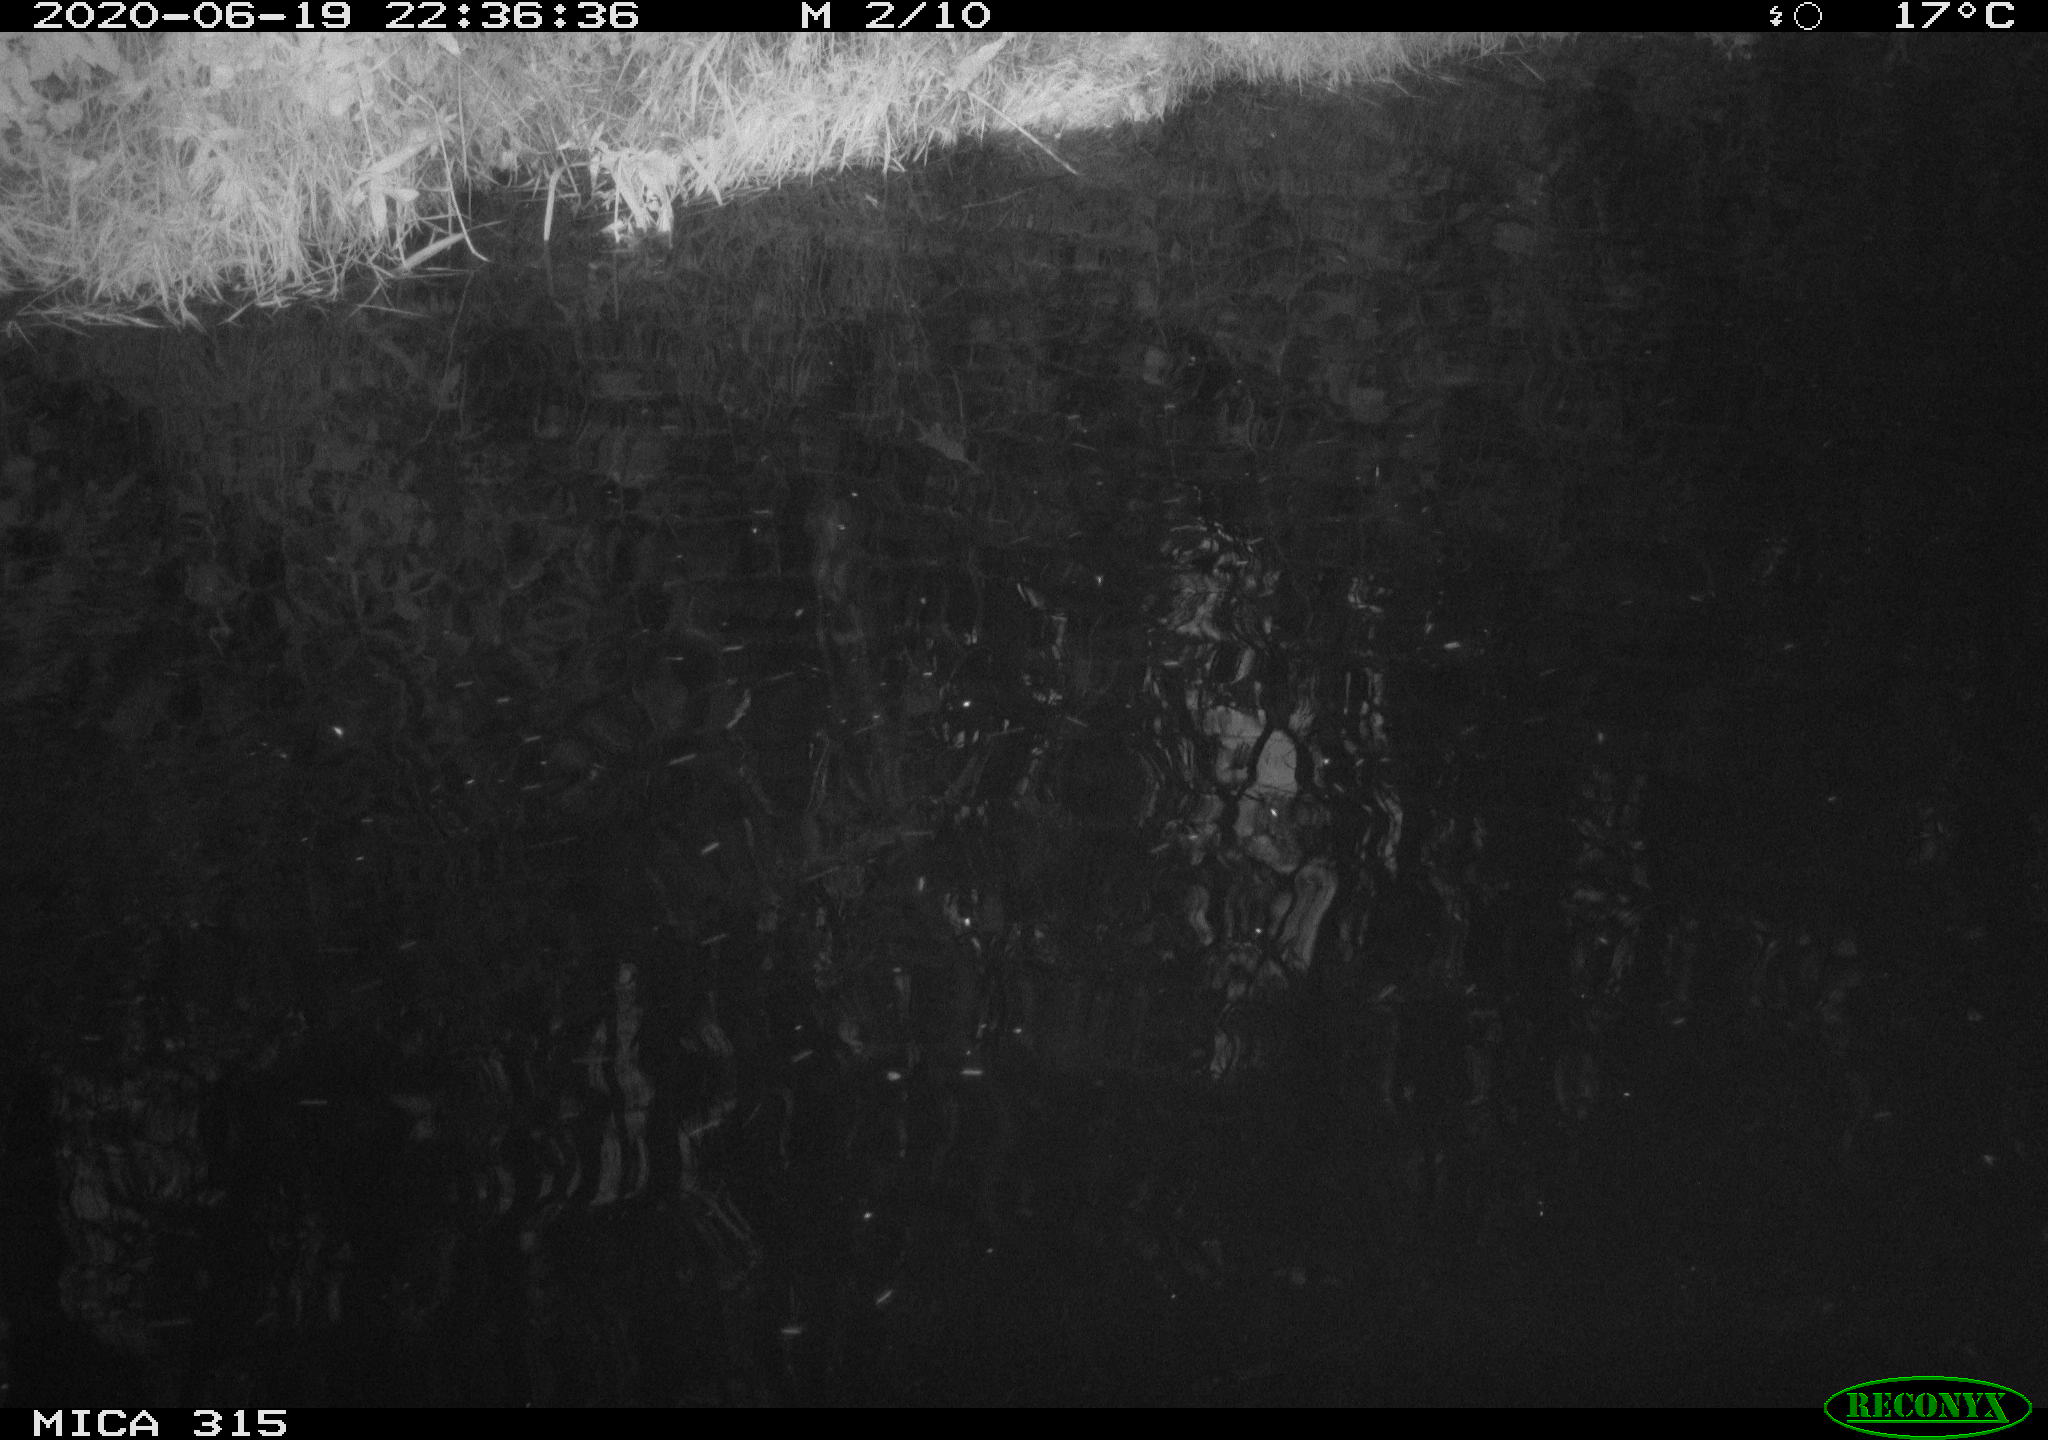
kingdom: Animalia
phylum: Chordata
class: Aves
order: Anseriformes
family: Anatidae
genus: Anas
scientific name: Anas platyrhynchos
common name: Mallard
